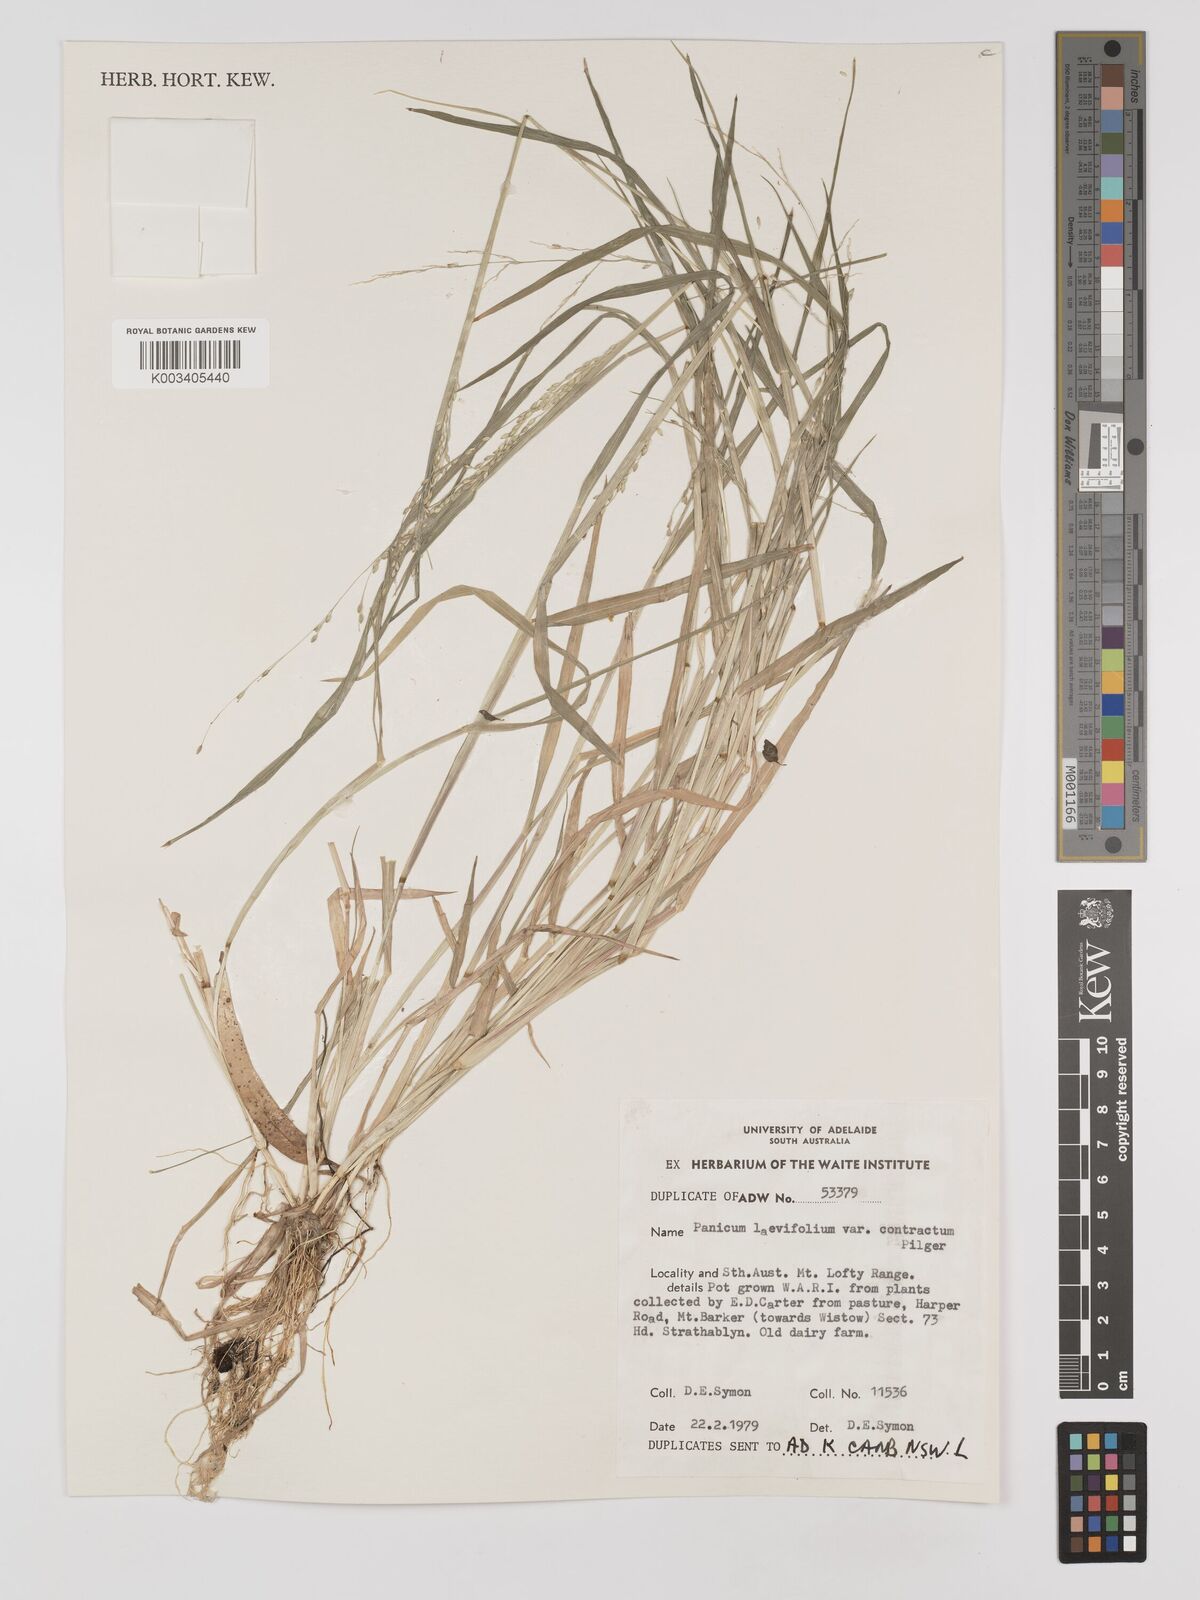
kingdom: Plantae
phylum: Tracheophyta
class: Liliopsida
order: Poales
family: Poaceae
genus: Panicum
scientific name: Panicum schinzii
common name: Sweet grass
